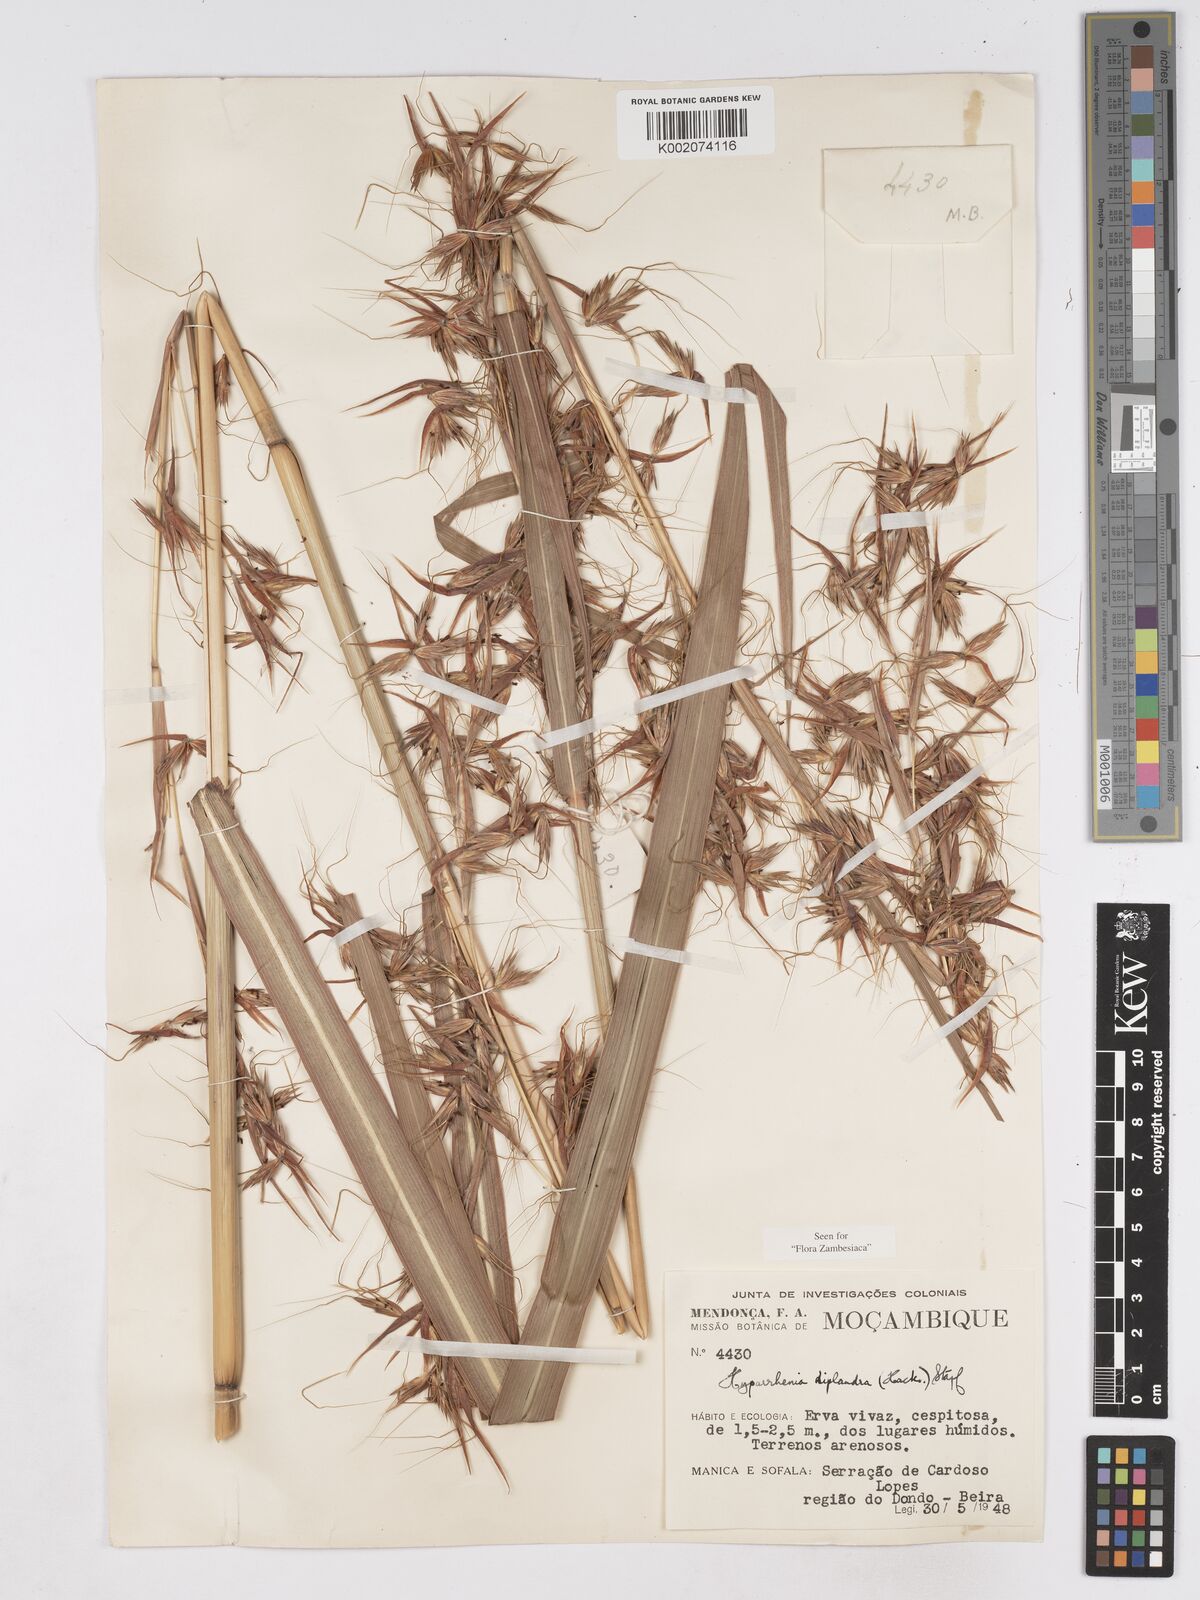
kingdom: Plantae
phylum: Tracheophyta
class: Liliopsida
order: Poales
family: Poaceae
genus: Hyparrhenia
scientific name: Hyparrhenia diplandra
